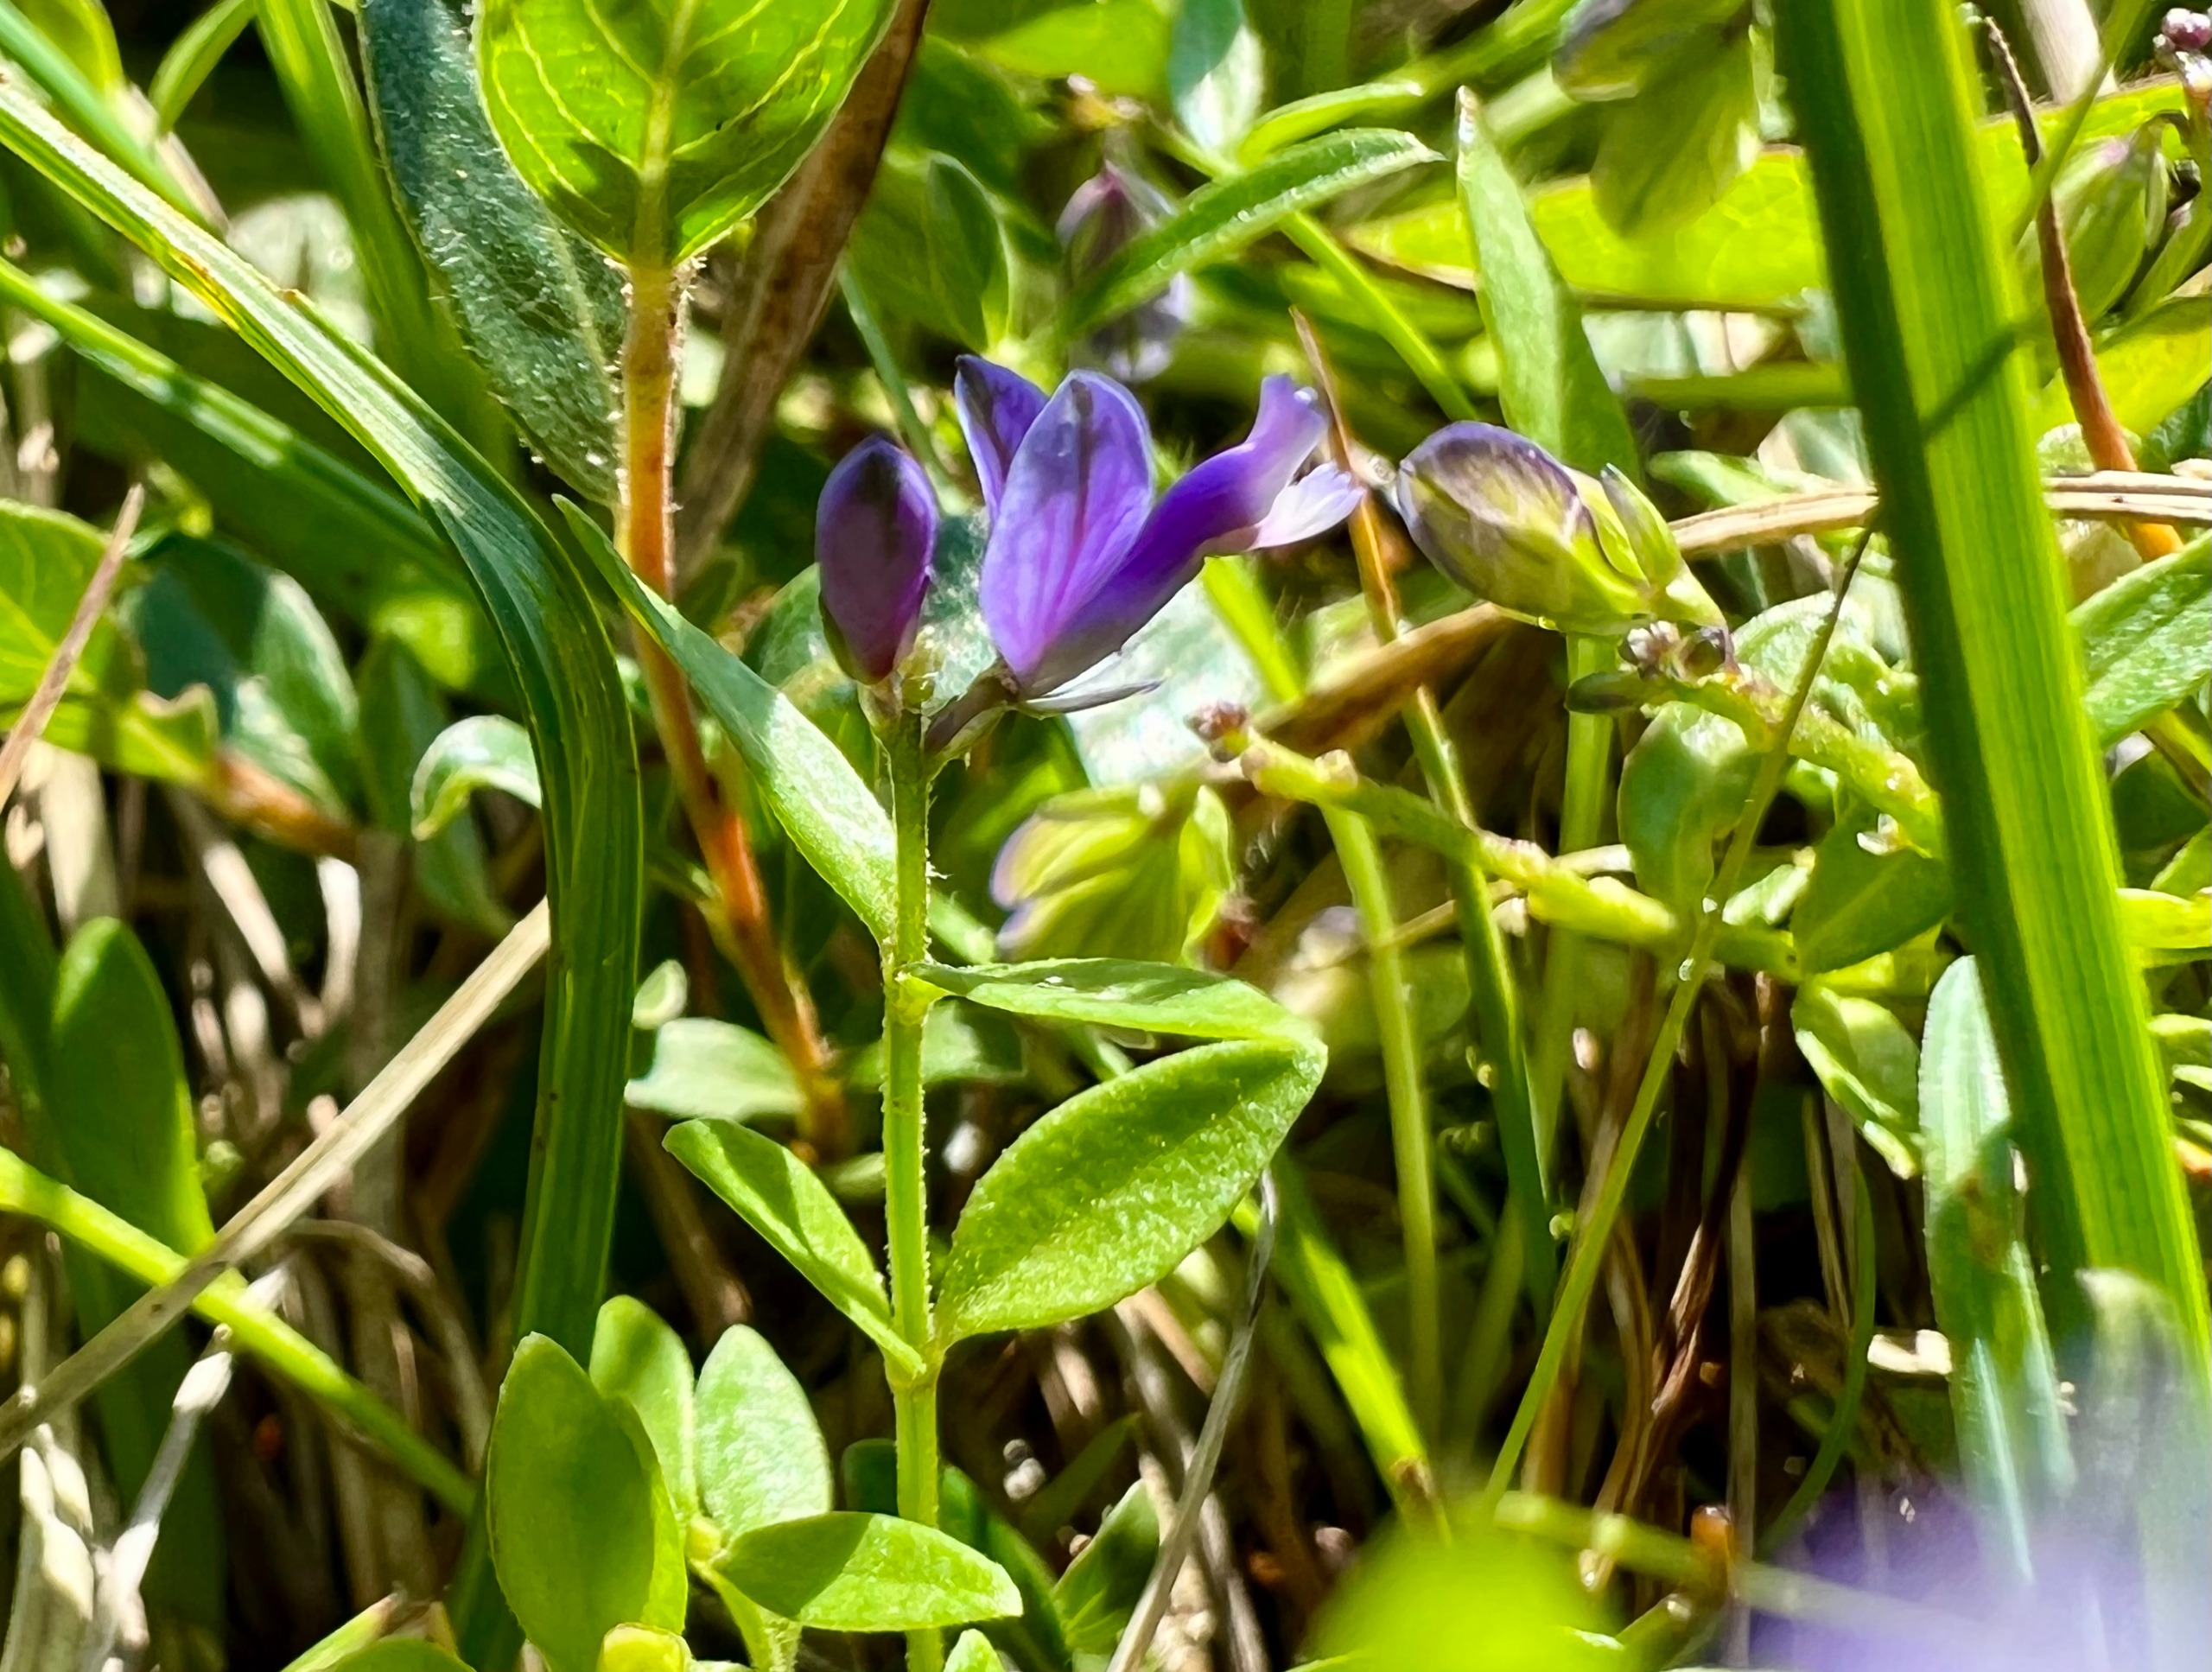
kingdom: Plantae
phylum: Tracheophyta
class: Magnoliopsida
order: Fabales
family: Polygalaceae
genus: Polygala
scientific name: Polygala serpyllifolia
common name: Spæd mælkeurt
